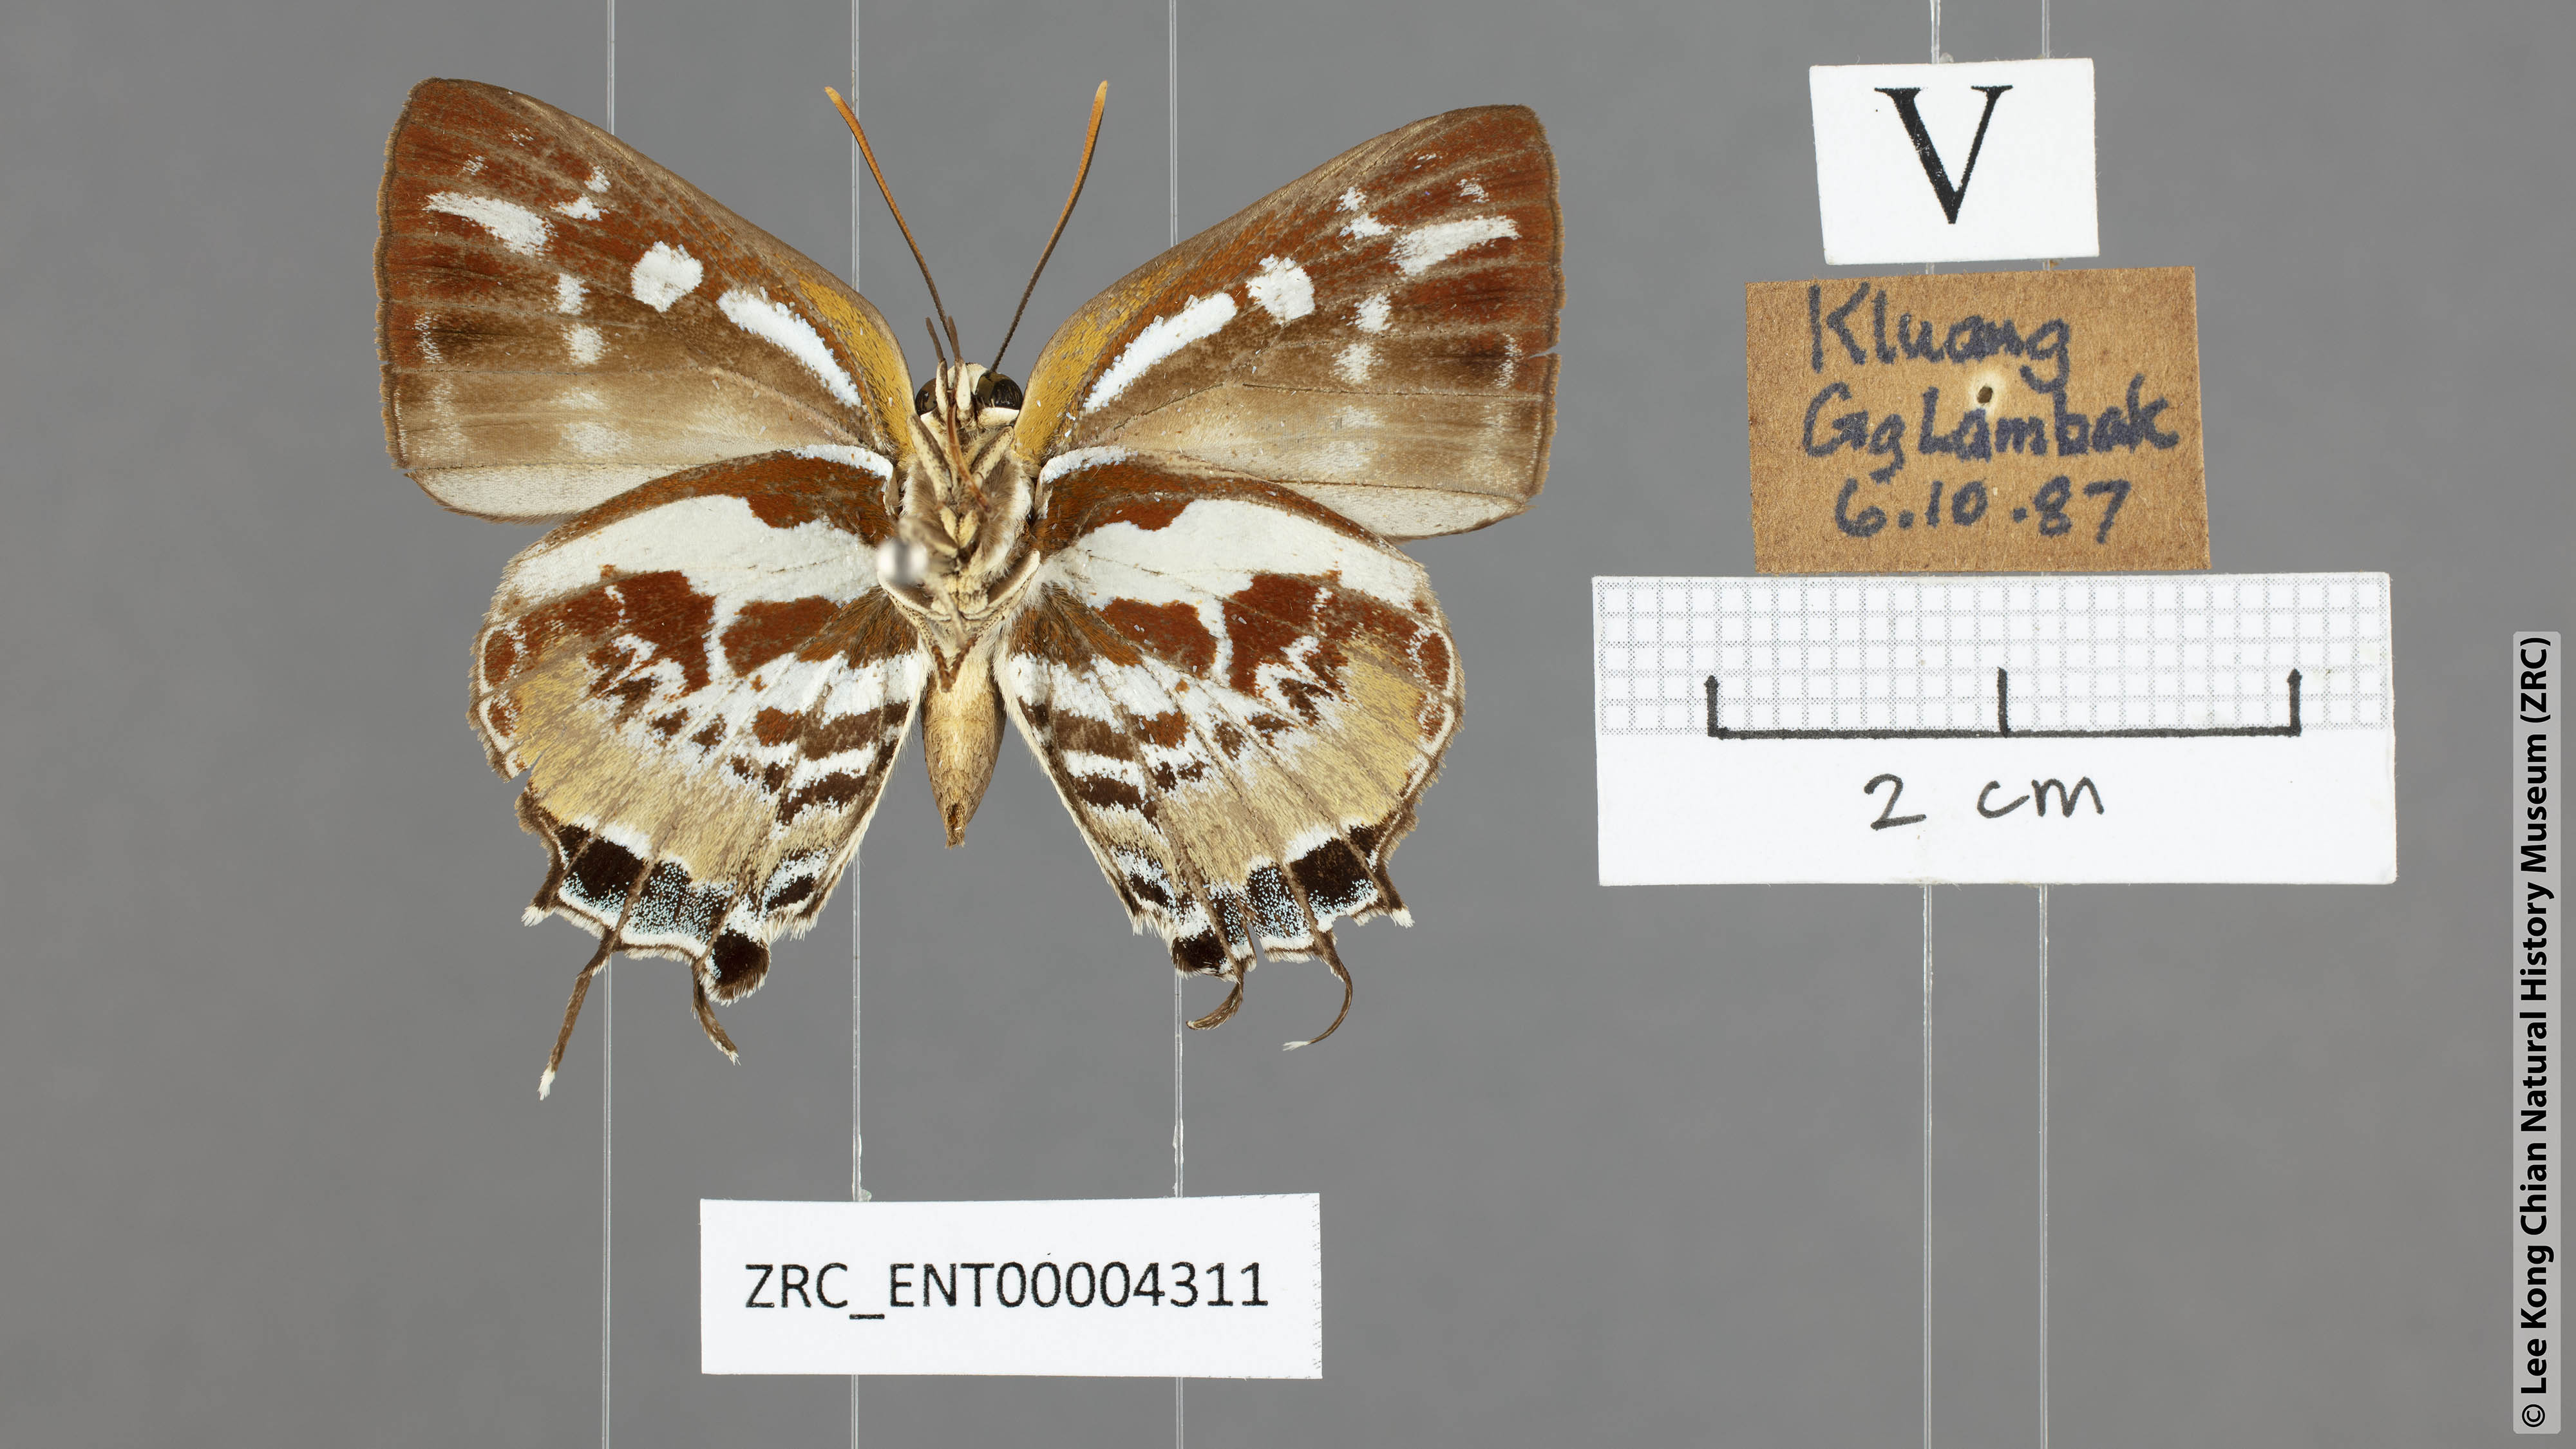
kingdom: Animalia
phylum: Arthropoda
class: Insecta
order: Lepidoptera
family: Lycaenidae
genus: Iraota
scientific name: Iraota rochana
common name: Scarce silverstreak blue
